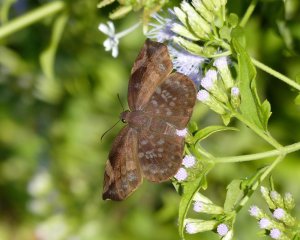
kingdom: Animalia
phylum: Arthropoda
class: Insecta
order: Lepidoptera
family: Hesperiidae
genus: Achlyodes
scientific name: Achlyodes thraso
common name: Sickle-winged Skipper
